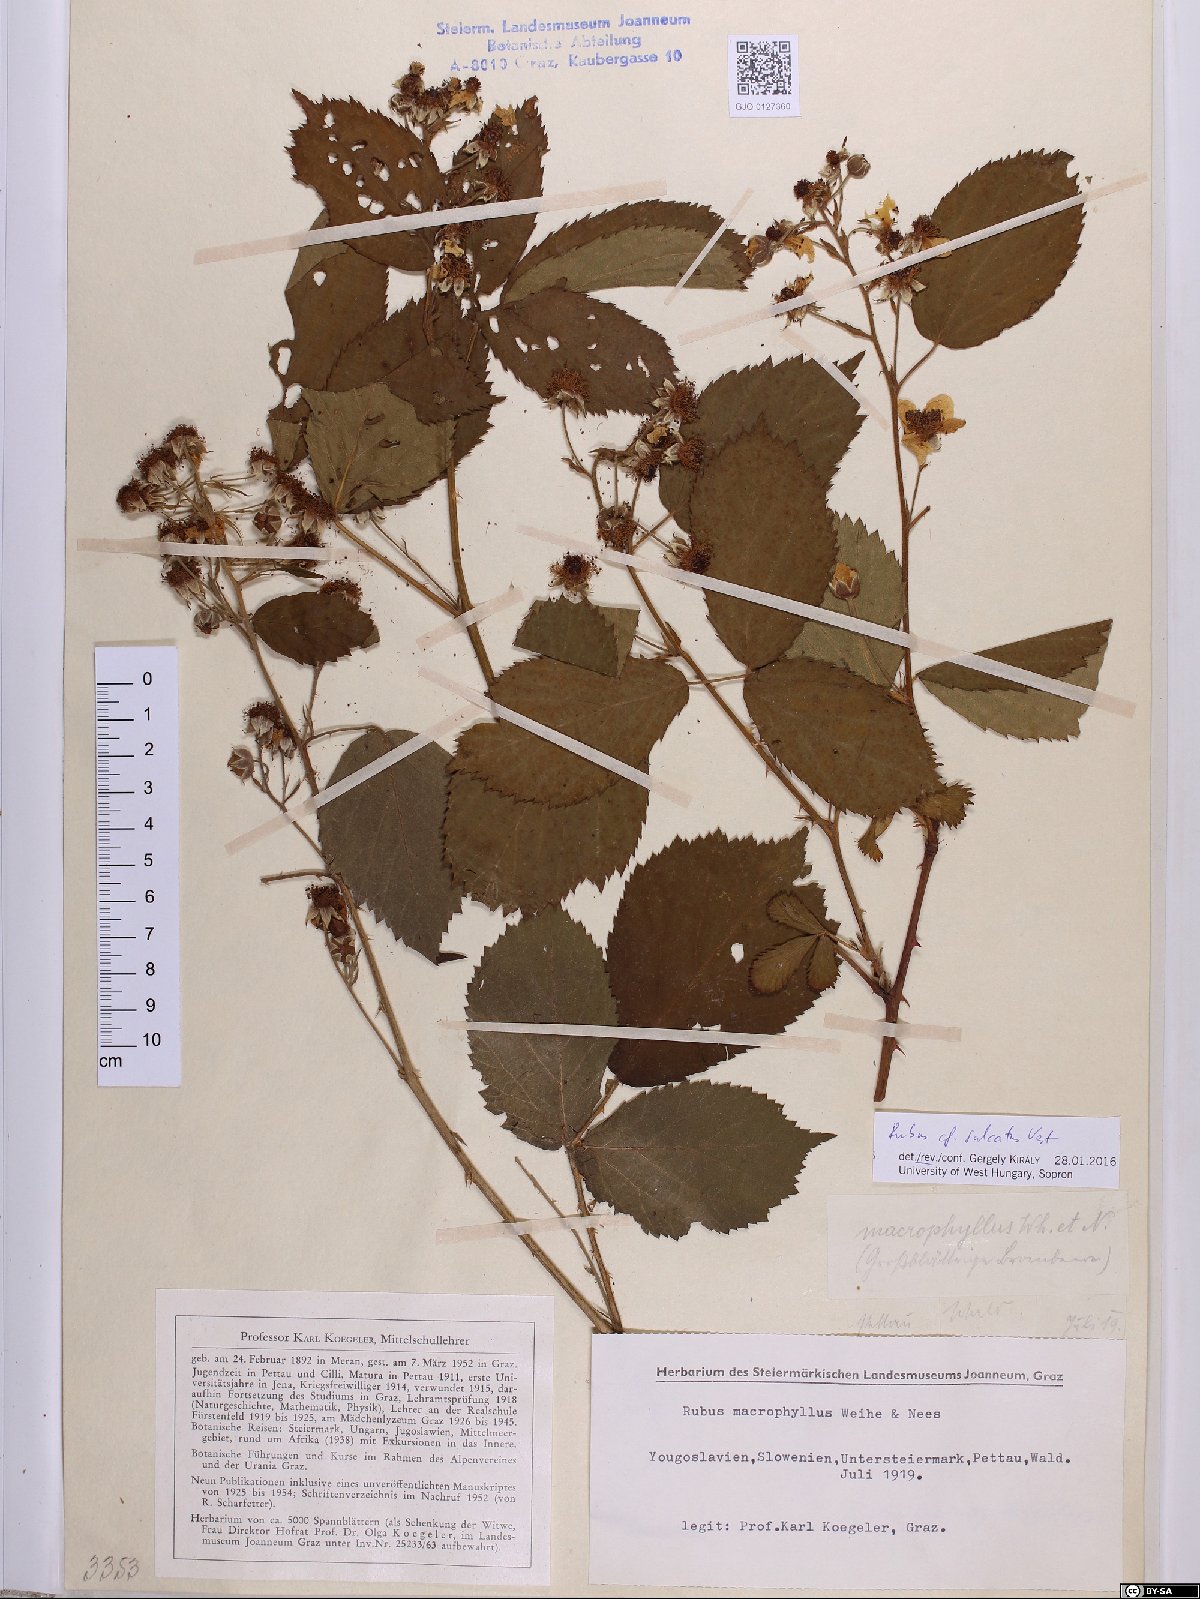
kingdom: Plantae
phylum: Tracheophyta
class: Magnoliopsida
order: Rosales
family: Rosaceae
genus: Rubus
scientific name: Rubus sulcatus
